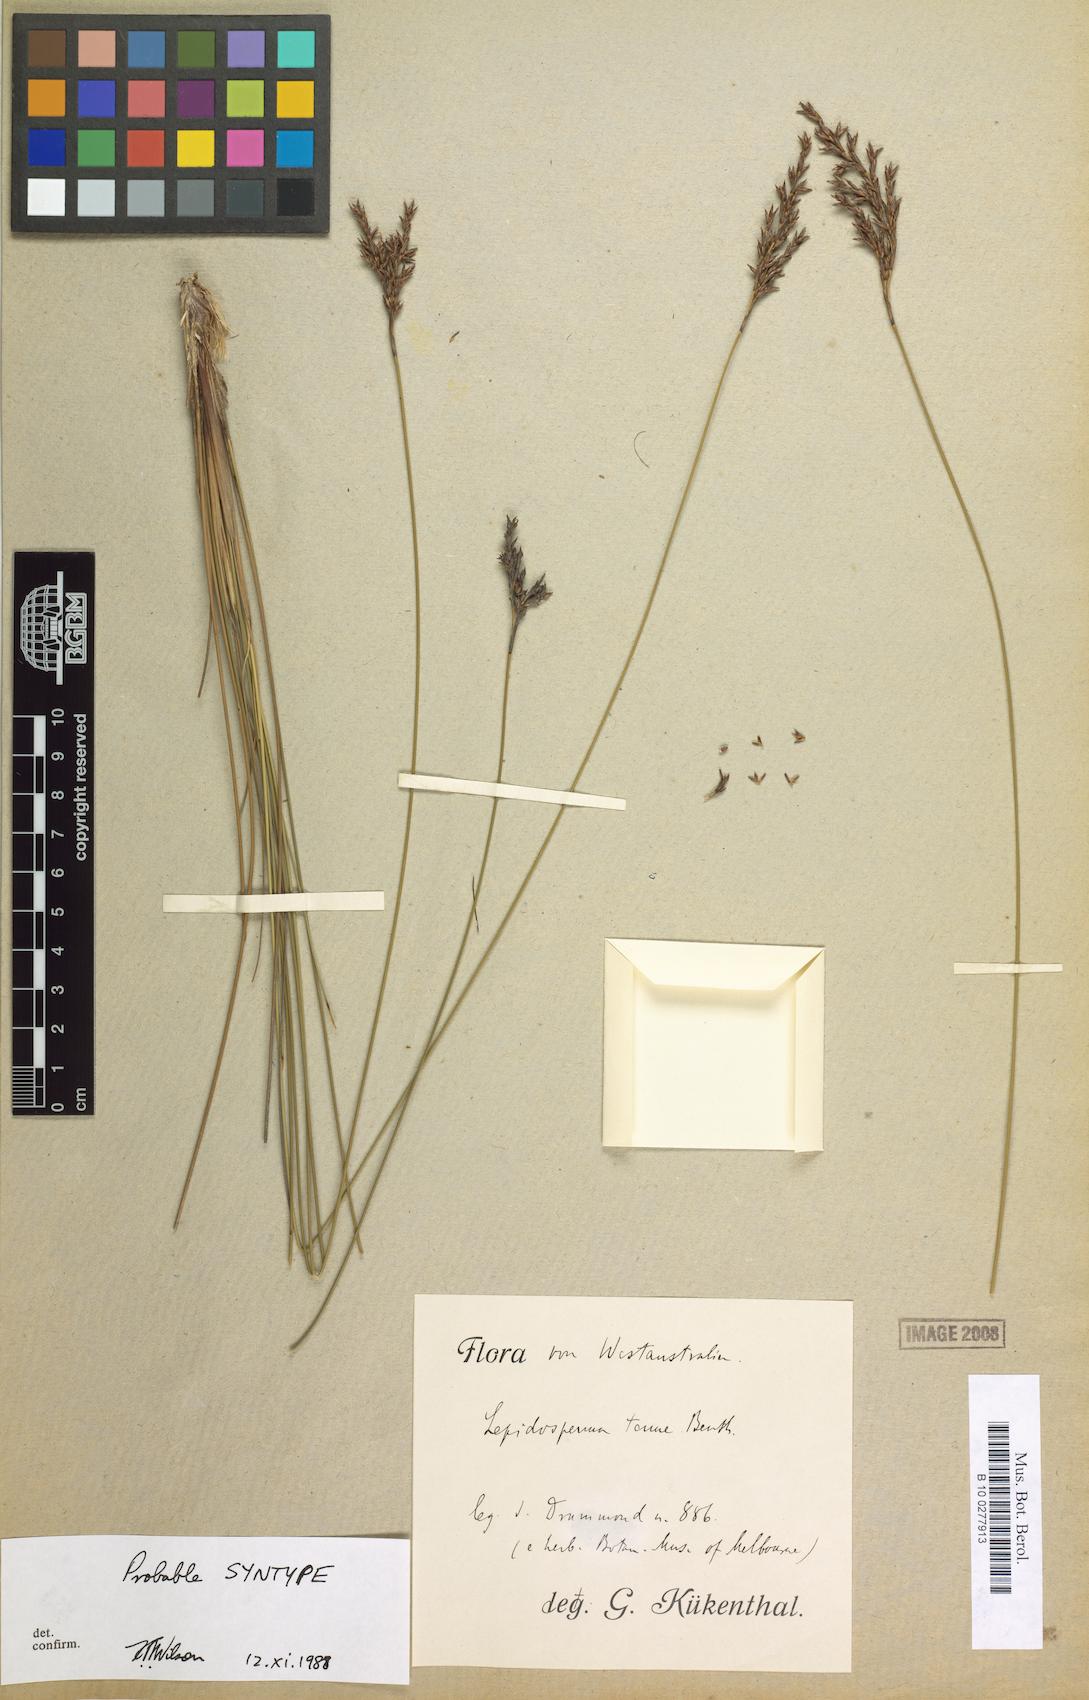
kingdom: Plantae
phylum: Tracheophyta
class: Liliopsida
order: Poales
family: Cyperaceae
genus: Lepidosperma
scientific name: Lepidosperma tenue
